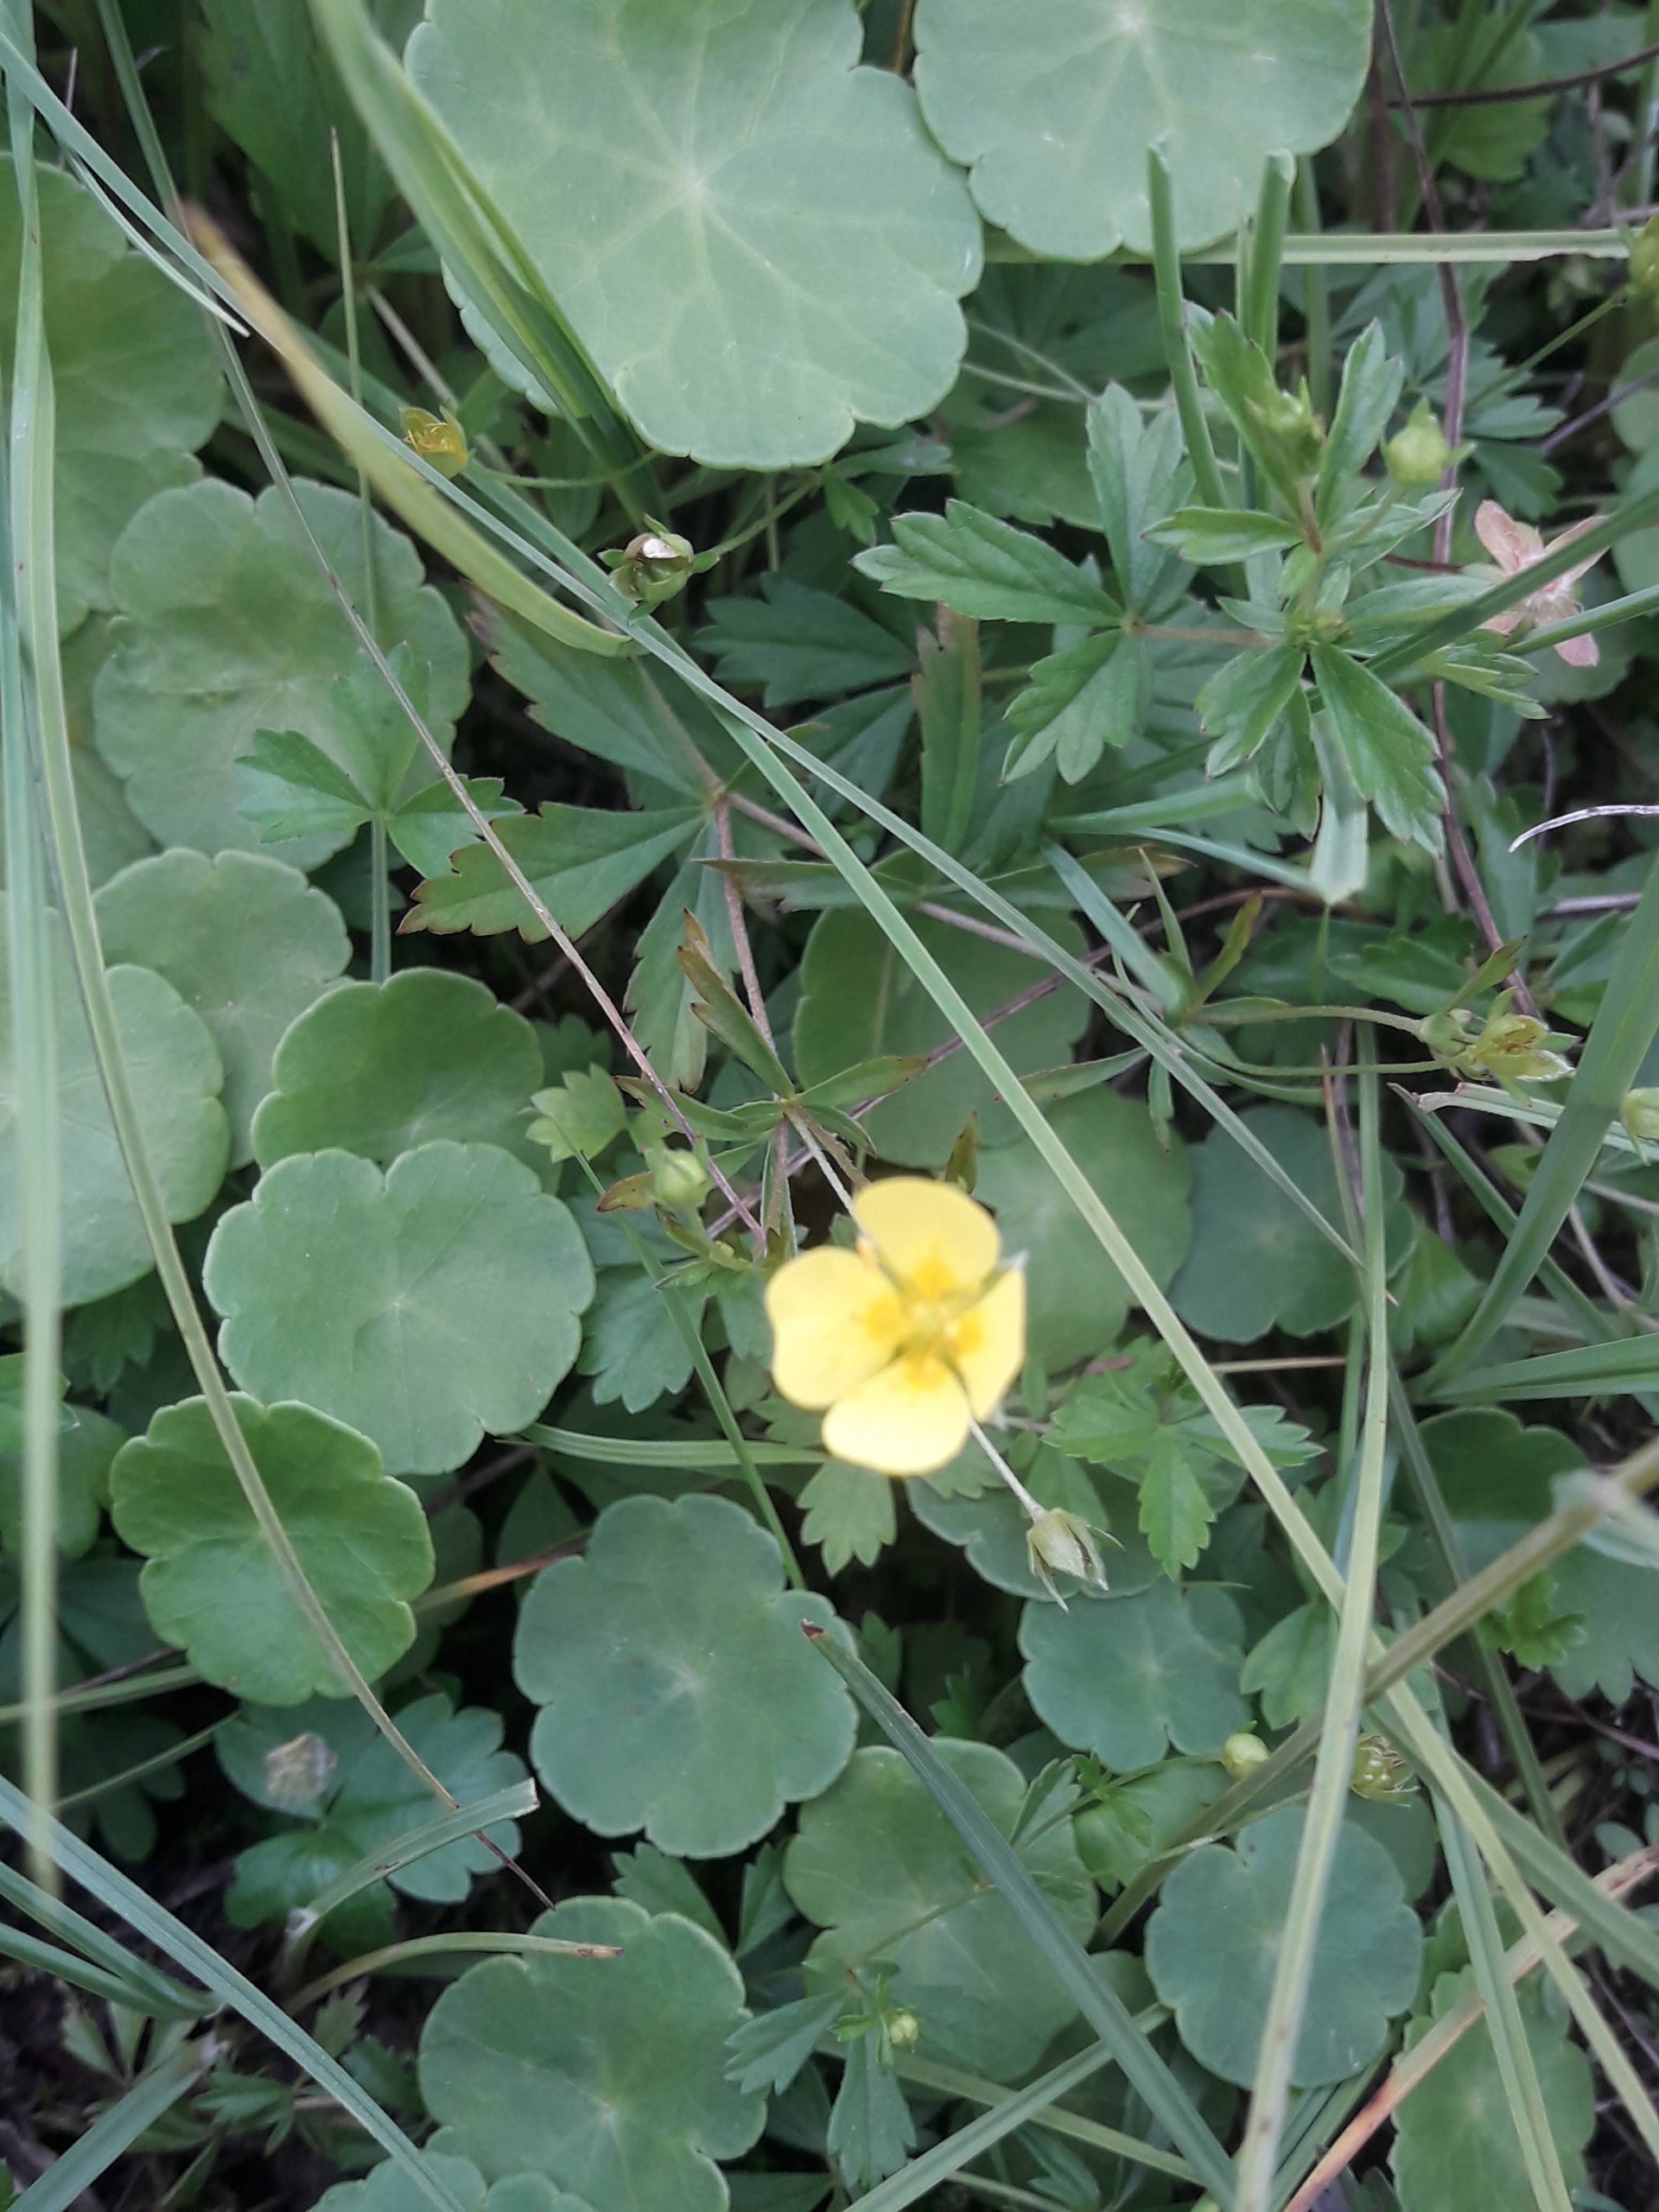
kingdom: Plantae
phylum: Tracheophyta
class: Magnoliopsida
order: Rosales
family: Rosaceae
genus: Potentilla
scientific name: Potentilla erecta
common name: Tormentil
